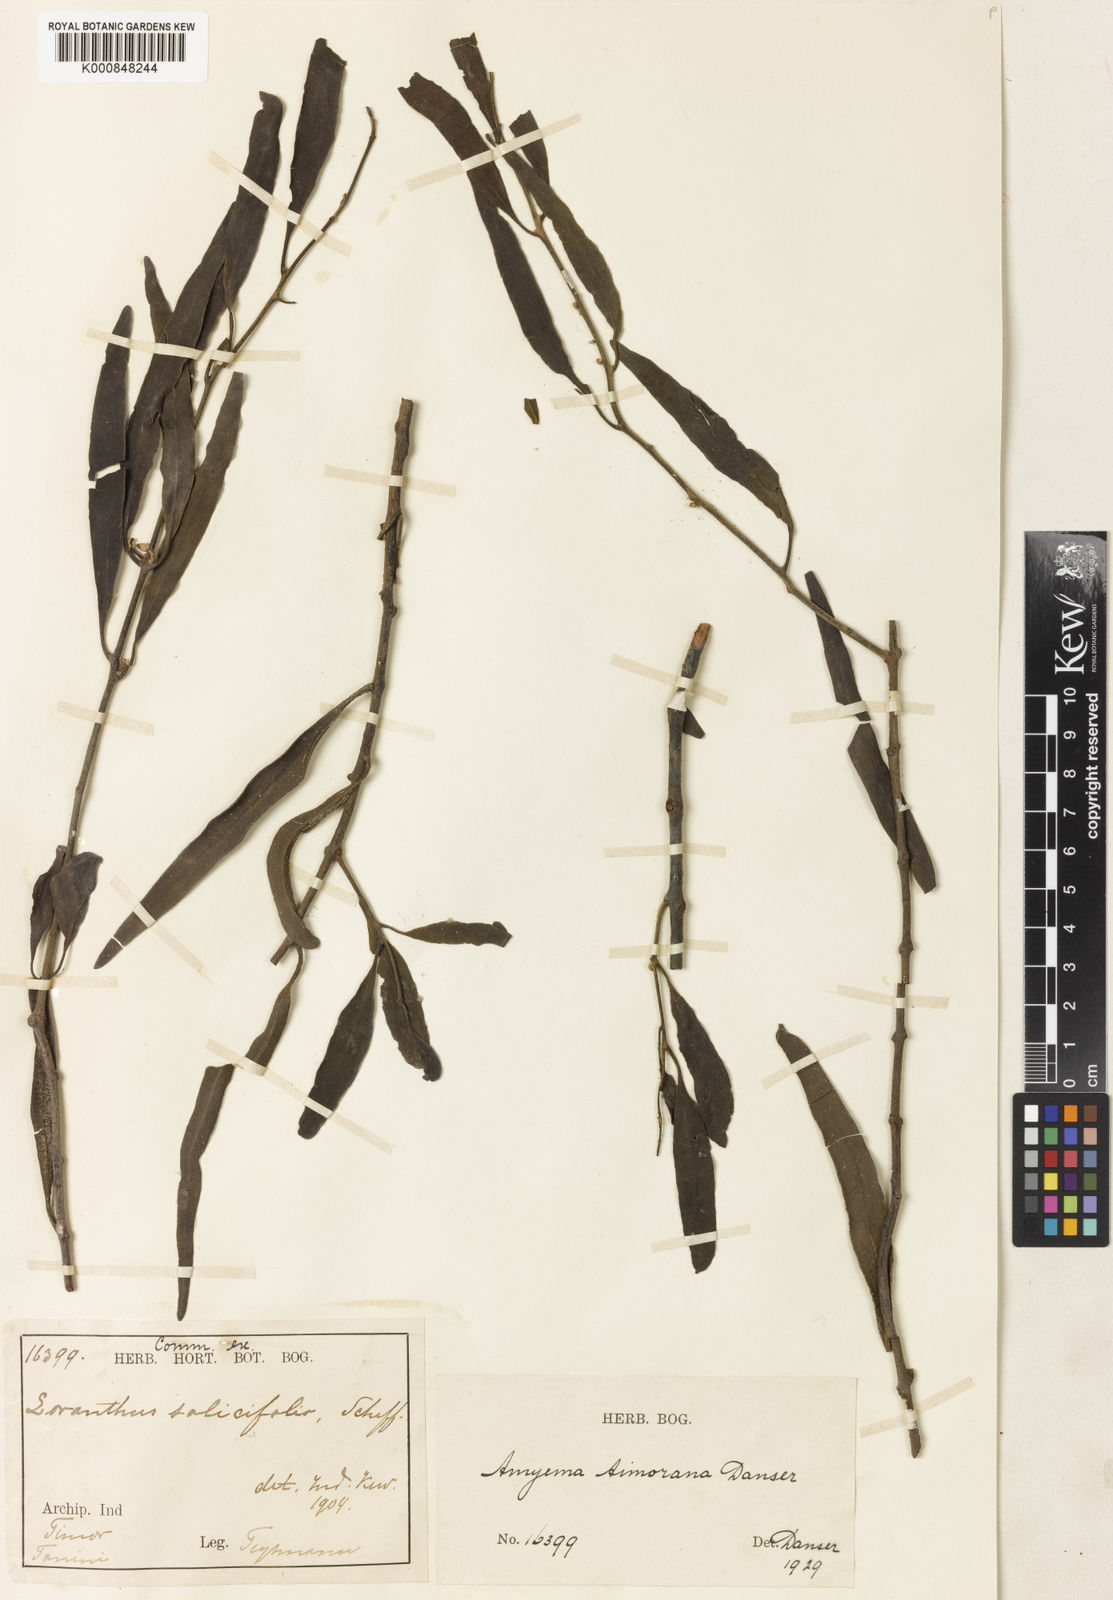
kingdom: Plantae
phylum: Tracheophyta
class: Magnoliopsida
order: Santalales
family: Loranthaceae
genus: Dendrophthoe
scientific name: Dendrophthoe timorana
